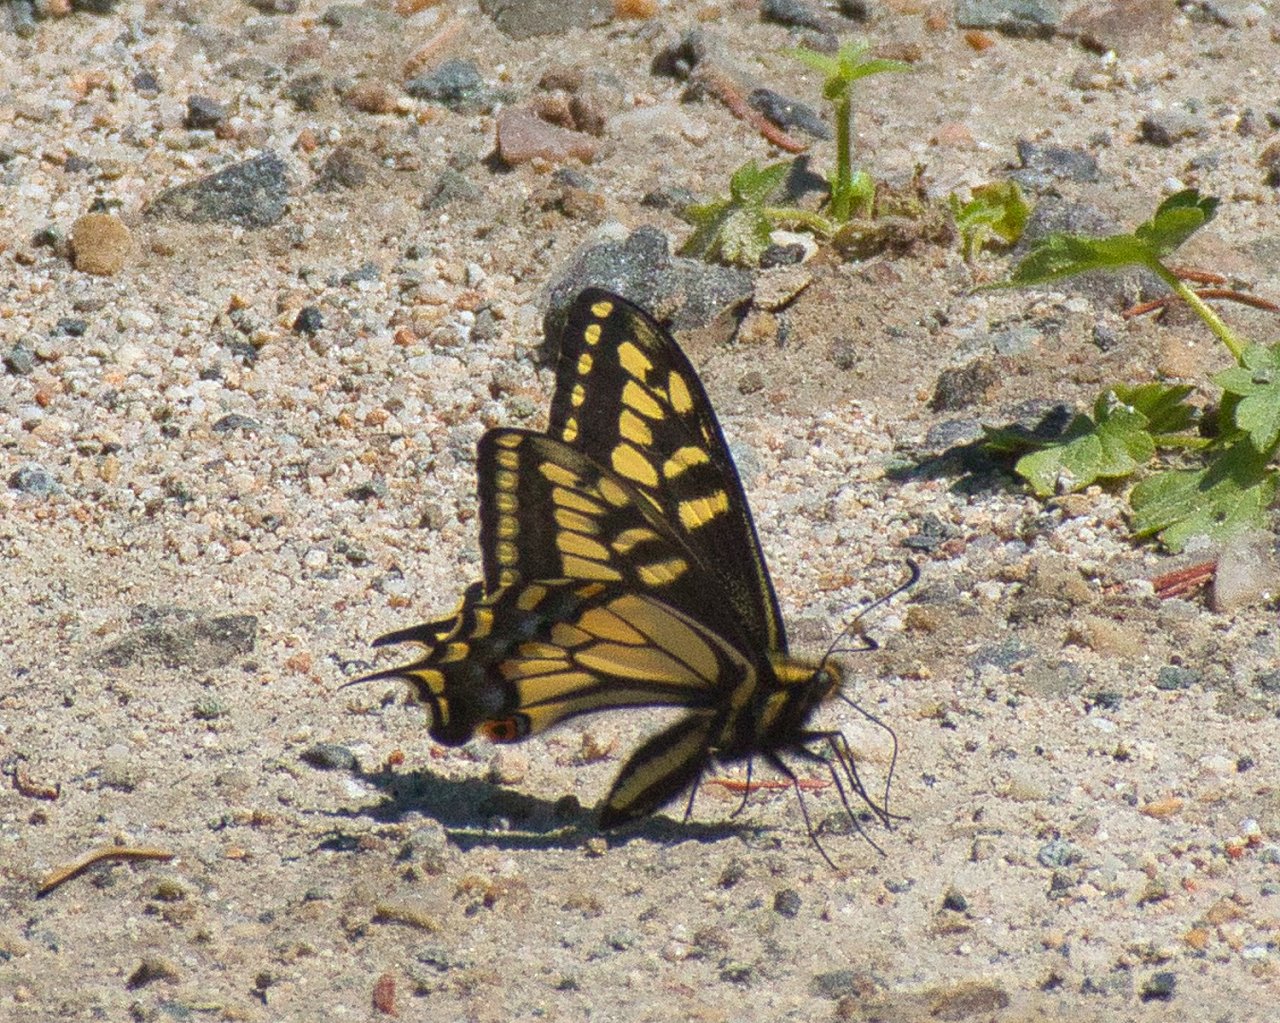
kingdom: Animalia
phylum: Arthropoda
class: Insecta
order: Lepidoptera
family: Papilionidae
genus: Papilio
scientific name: Papilio zelicaon
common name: Anise Swallowtail
